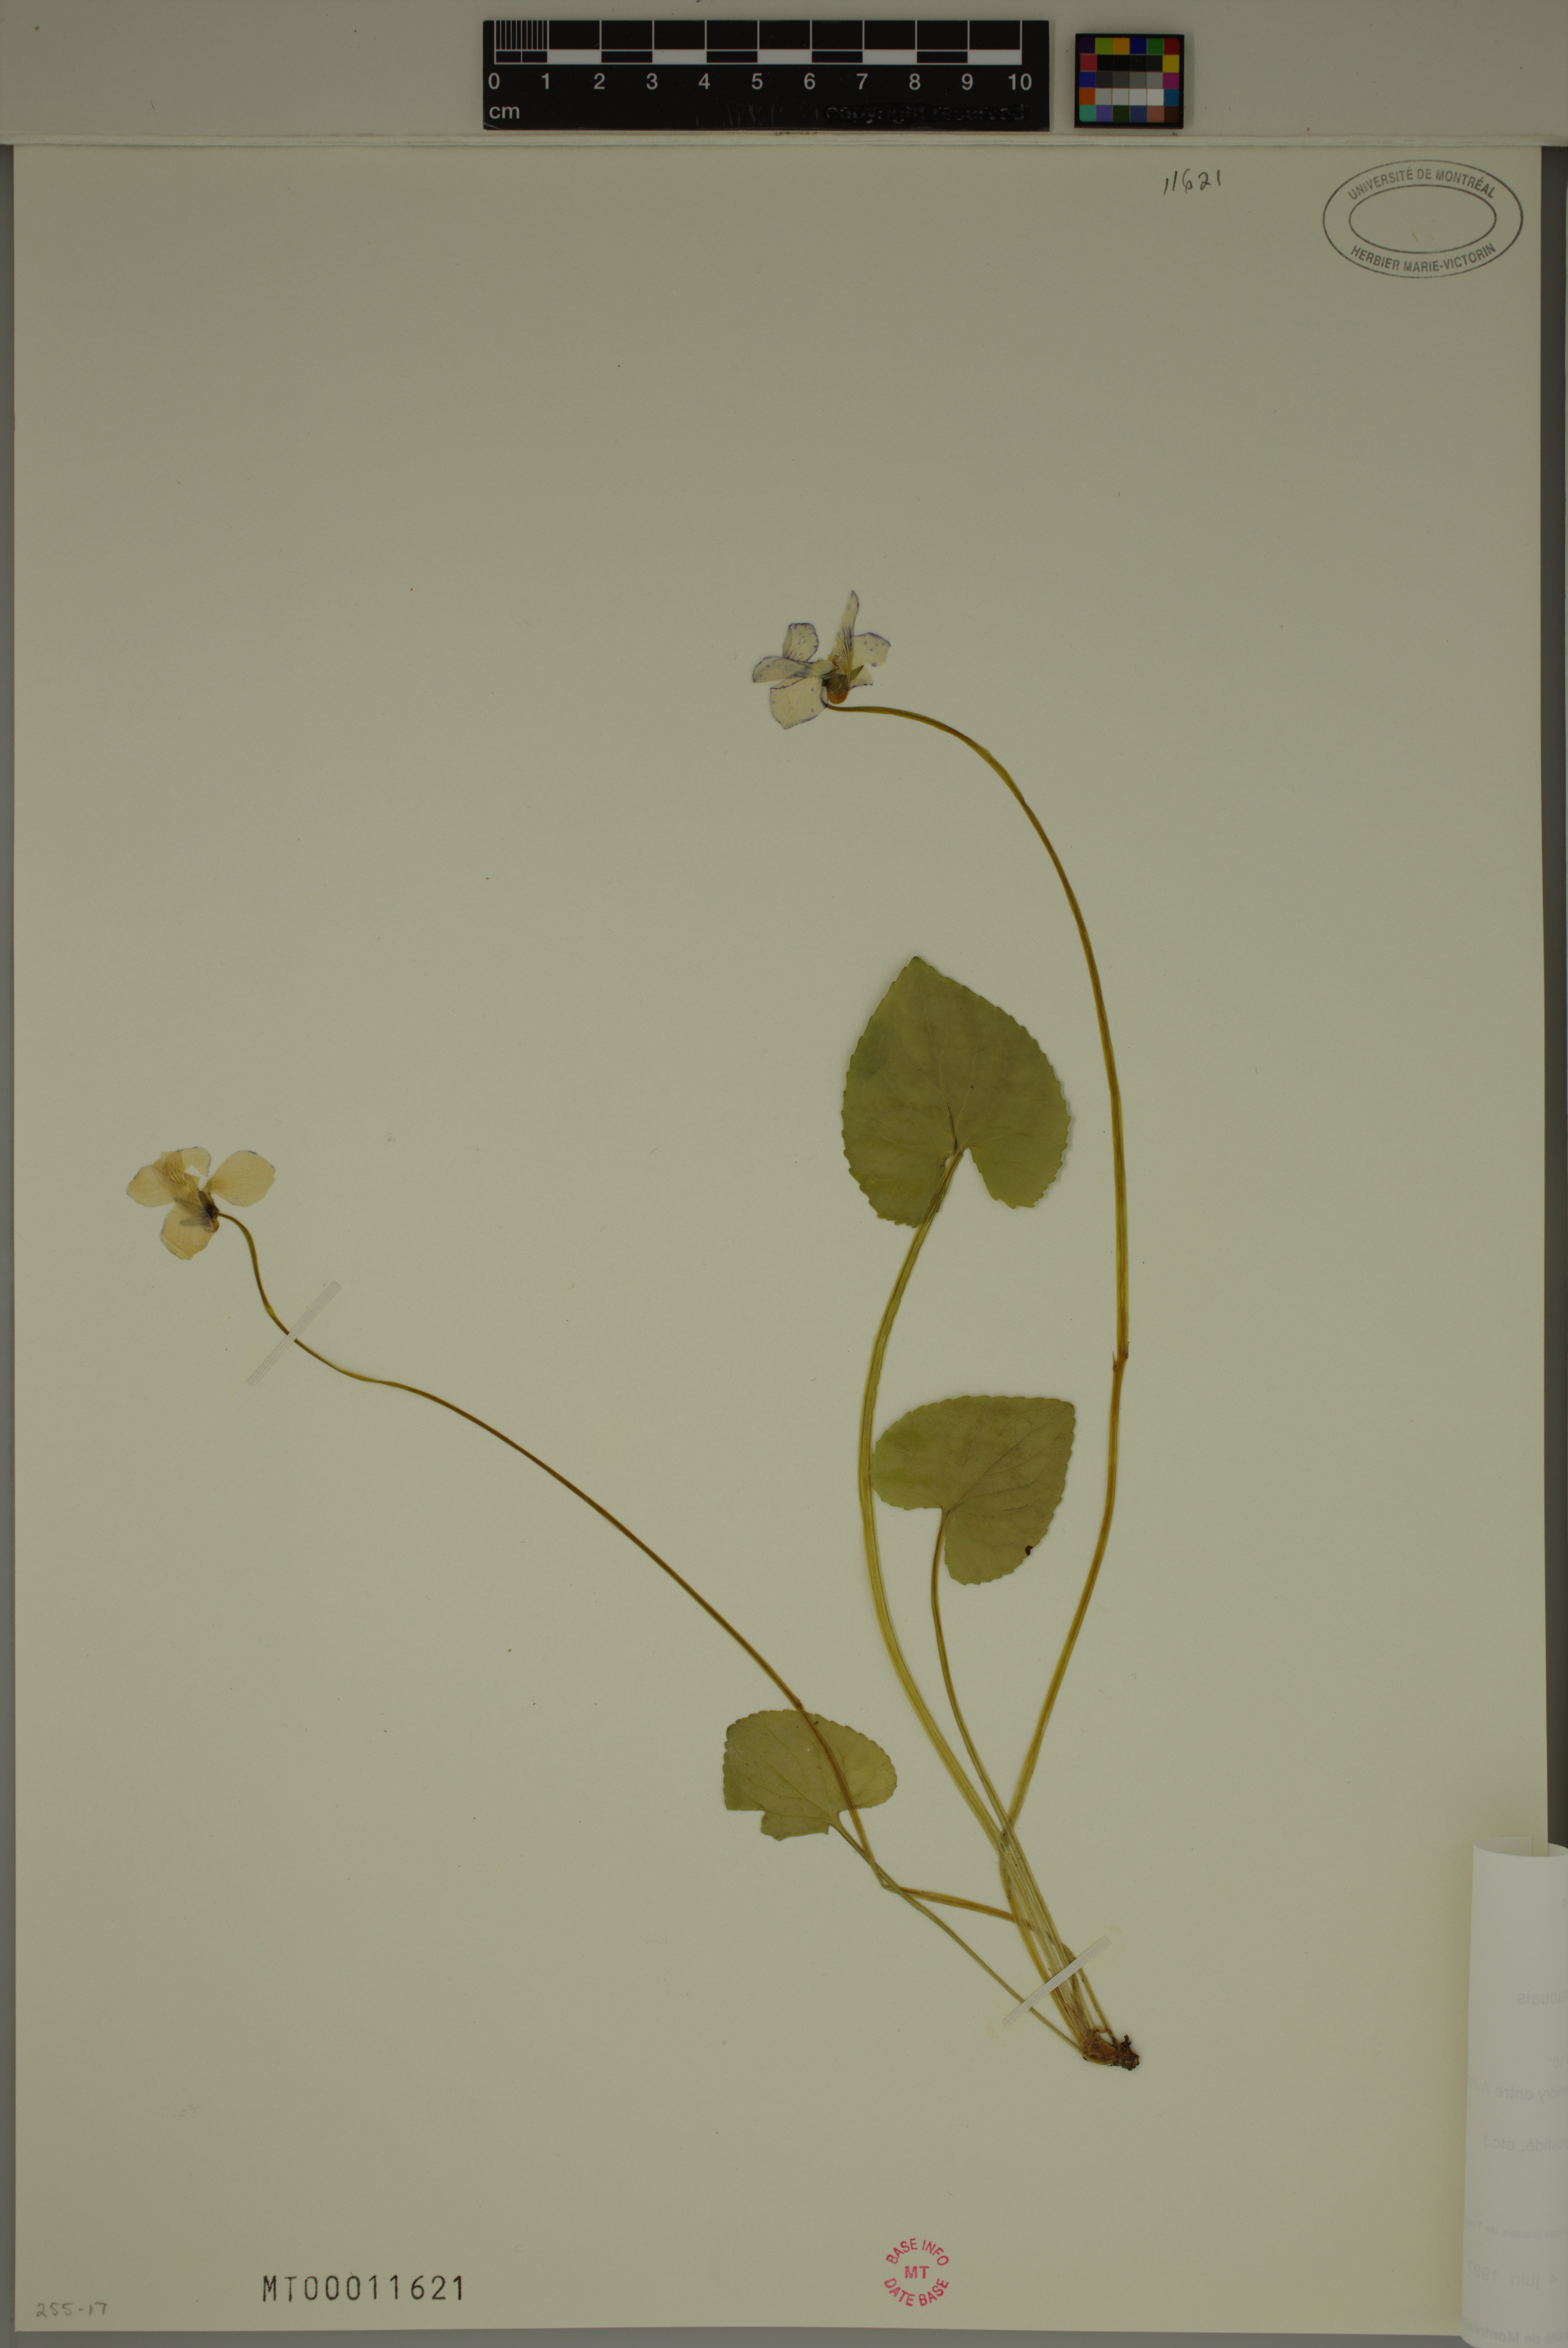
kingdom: Plantae
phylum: Tracheophyta
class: Magnoliopsida
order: Malpighiales
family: Violaceae
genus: Viola
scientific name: Viola sororia
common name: Dooryard violet
